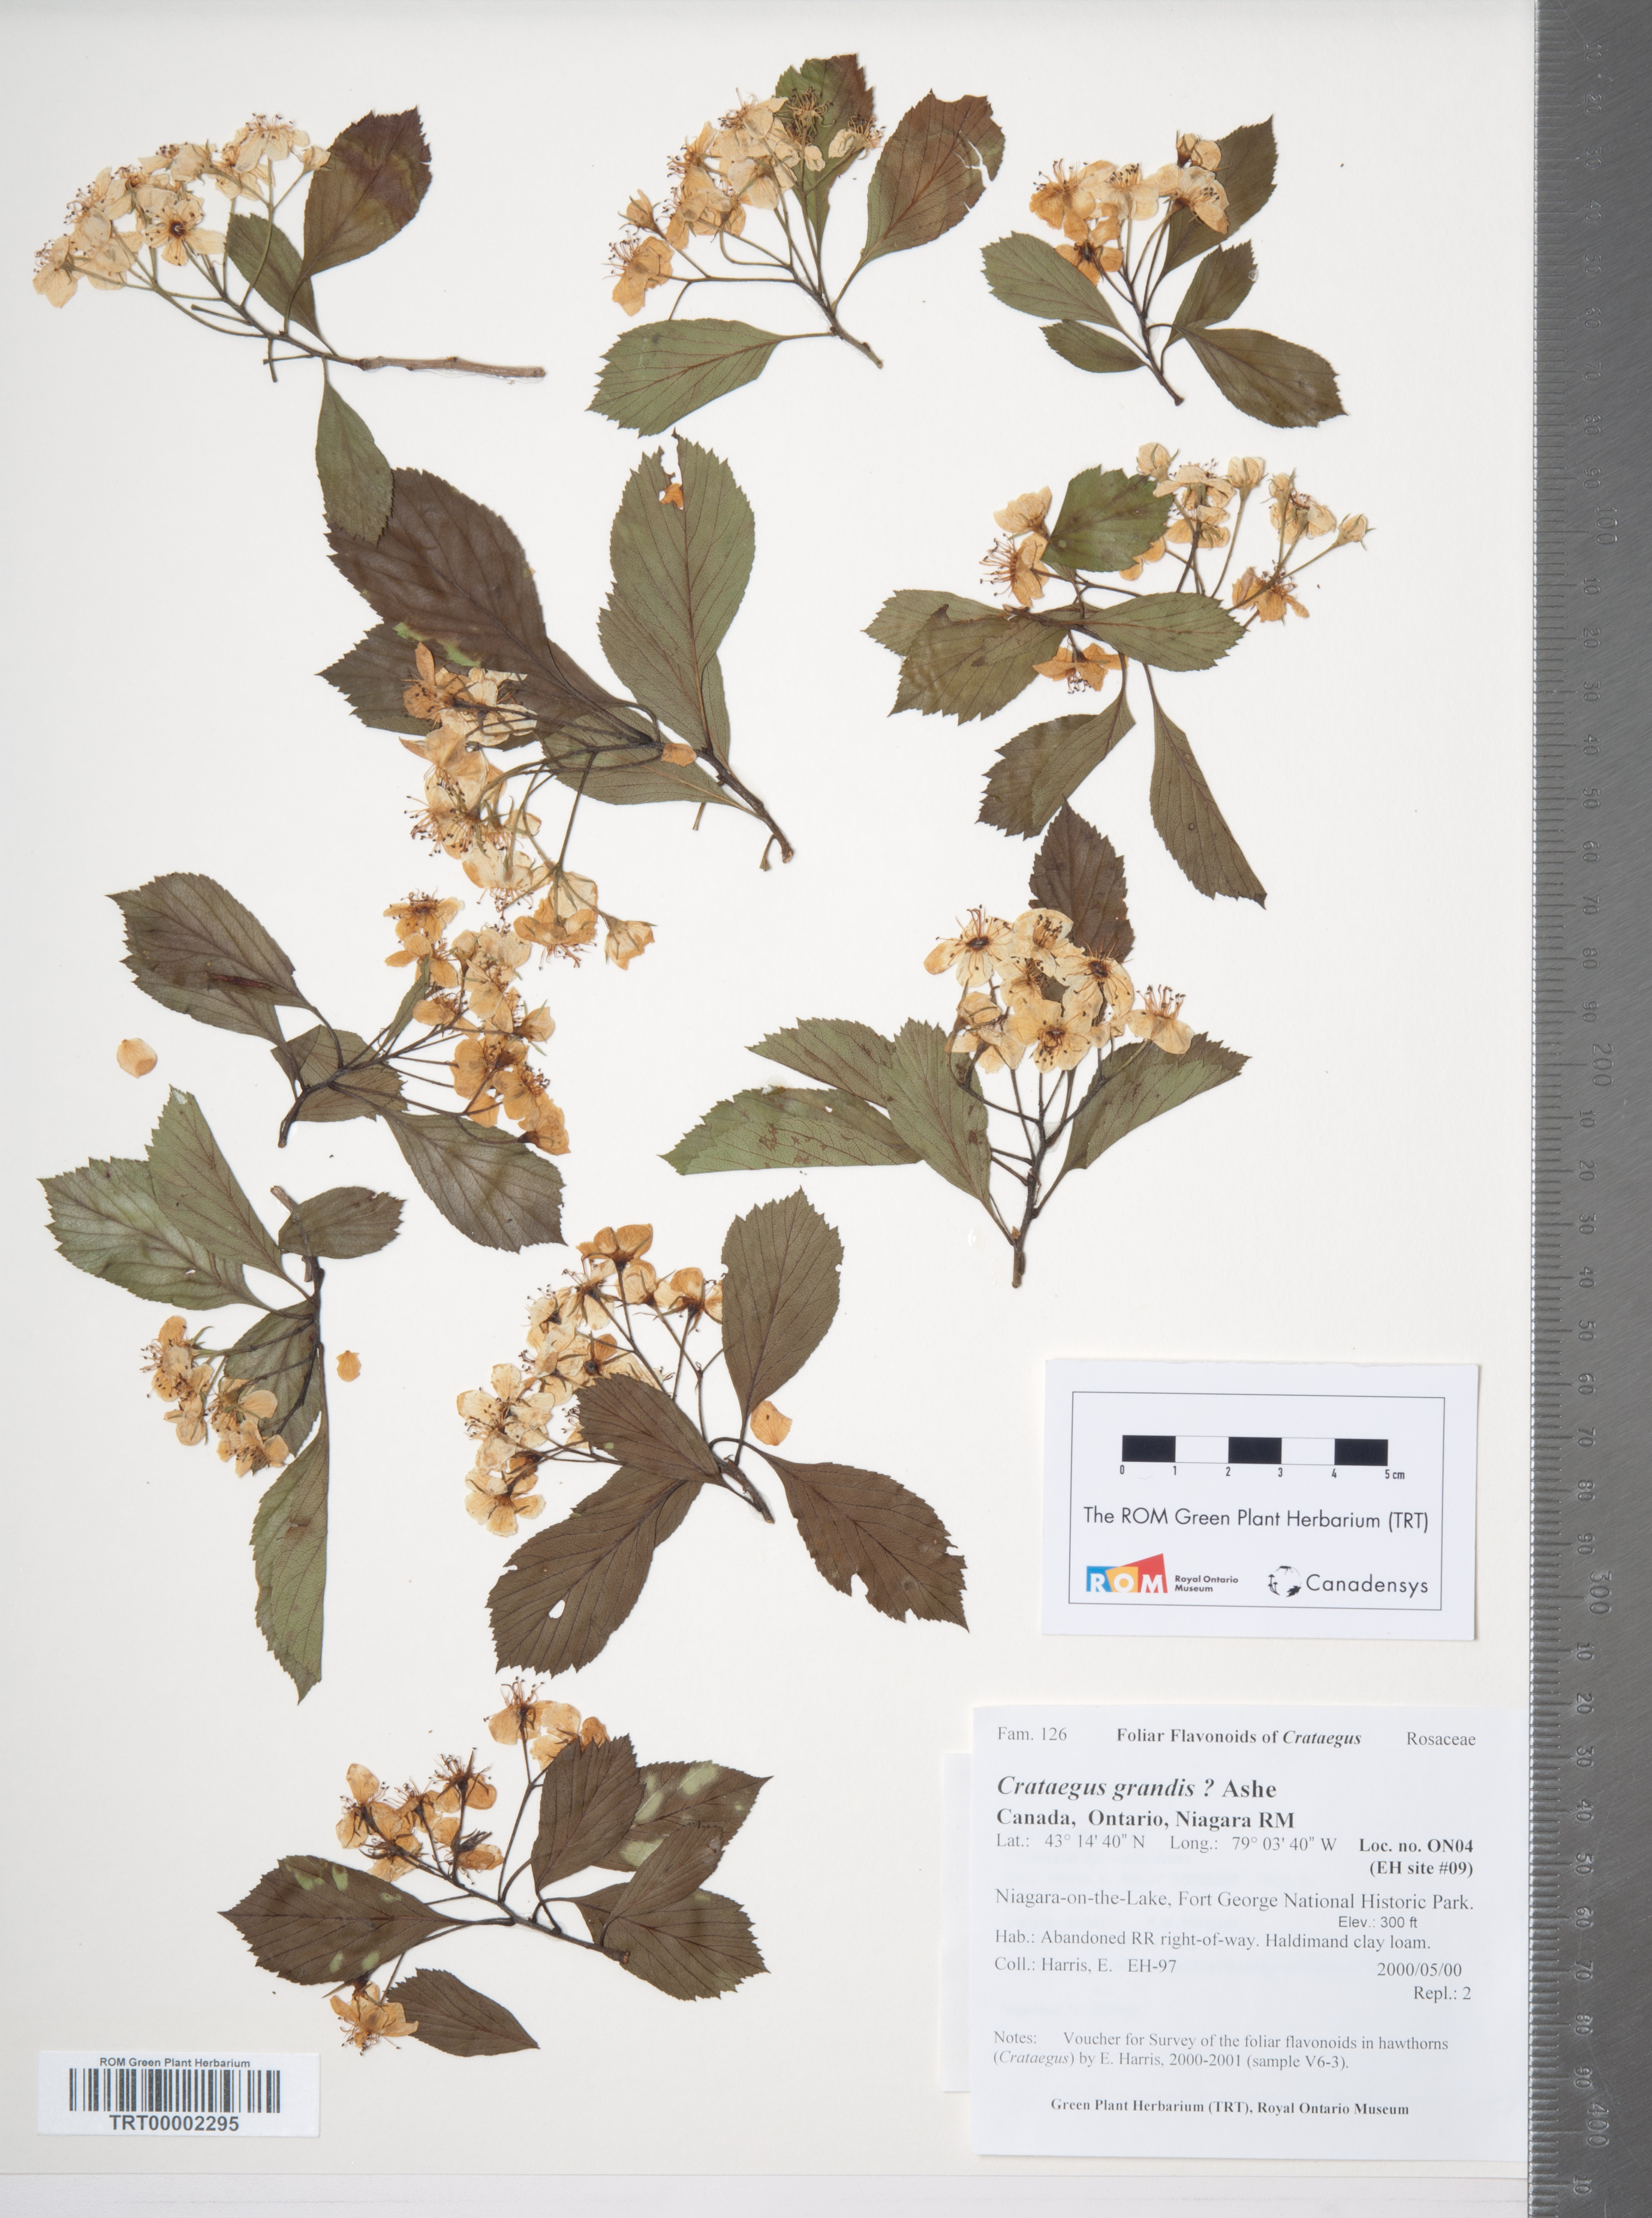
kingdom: Plantae
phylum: Tracheophyta
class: Magnoliopsida
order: Rosales
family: Rosaceae
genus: Crataegus
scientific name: Crataegus disperma
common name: Spreading hawthorn
